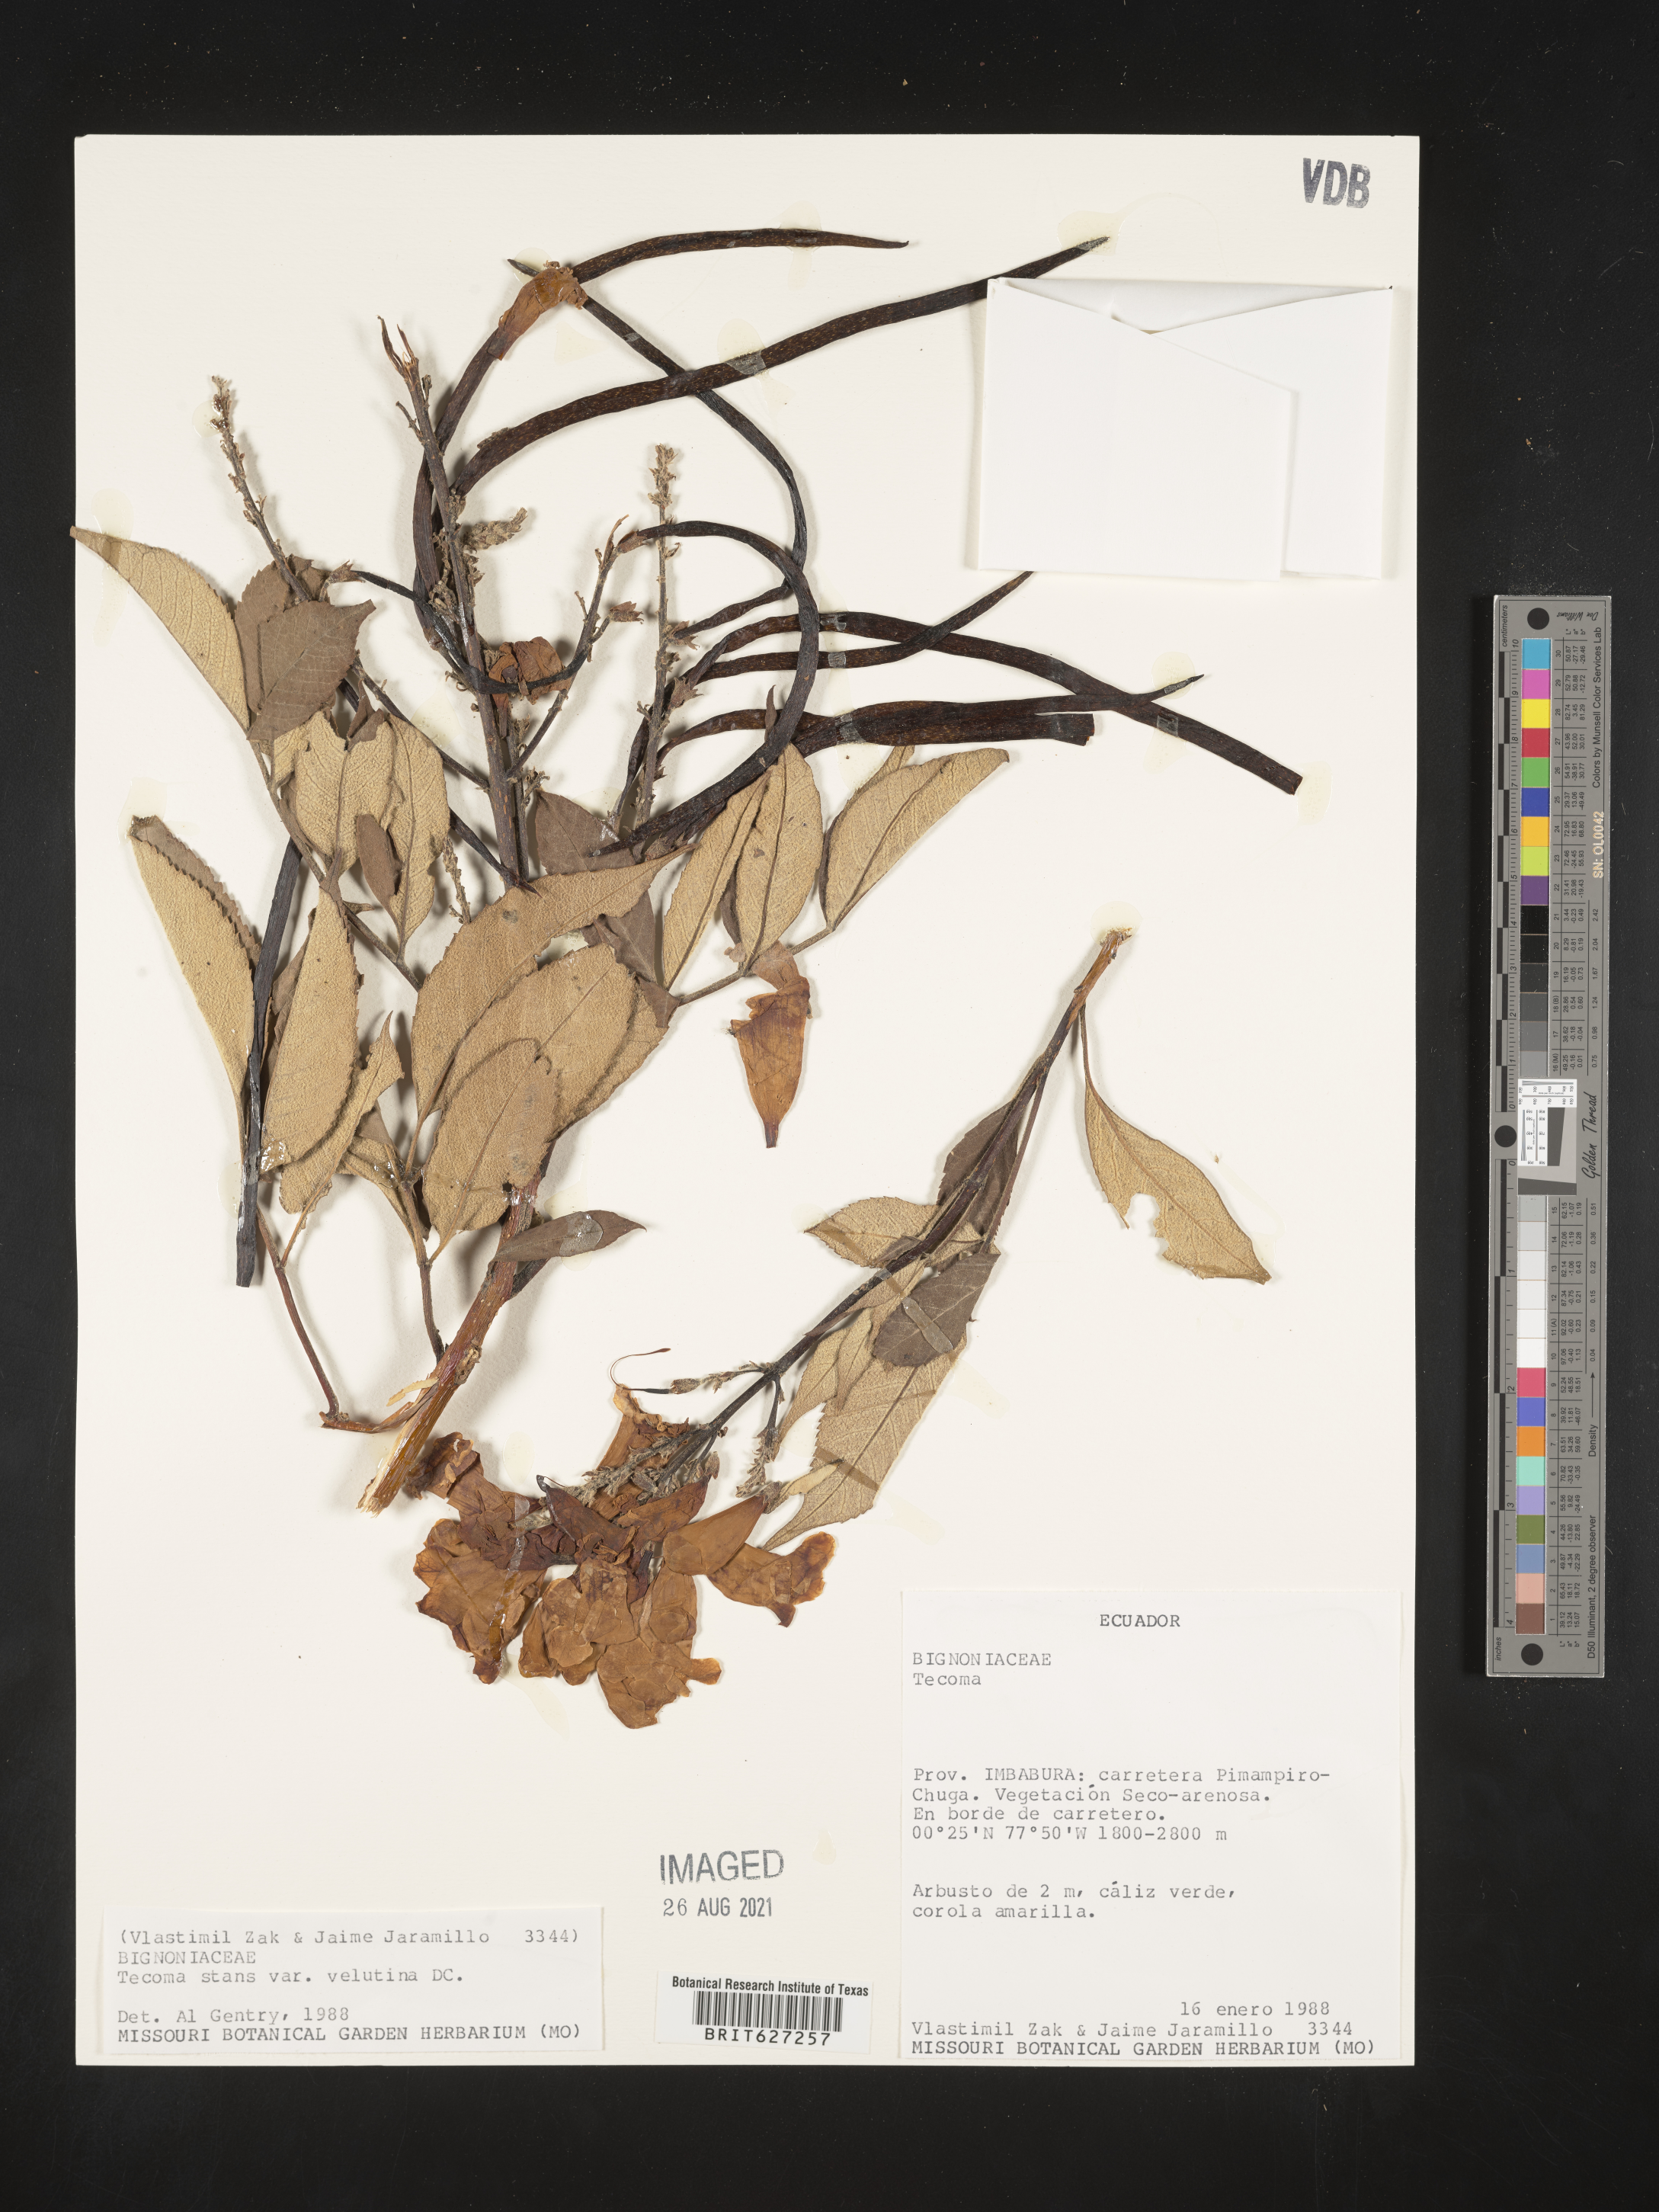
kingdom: Plantae
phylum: Tracheophyta
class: Magnoliopsida
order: Lamiales
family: Bignoniaceae
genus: Tecoma
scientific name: Tecoma stans
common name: Yellow trumpetbush
